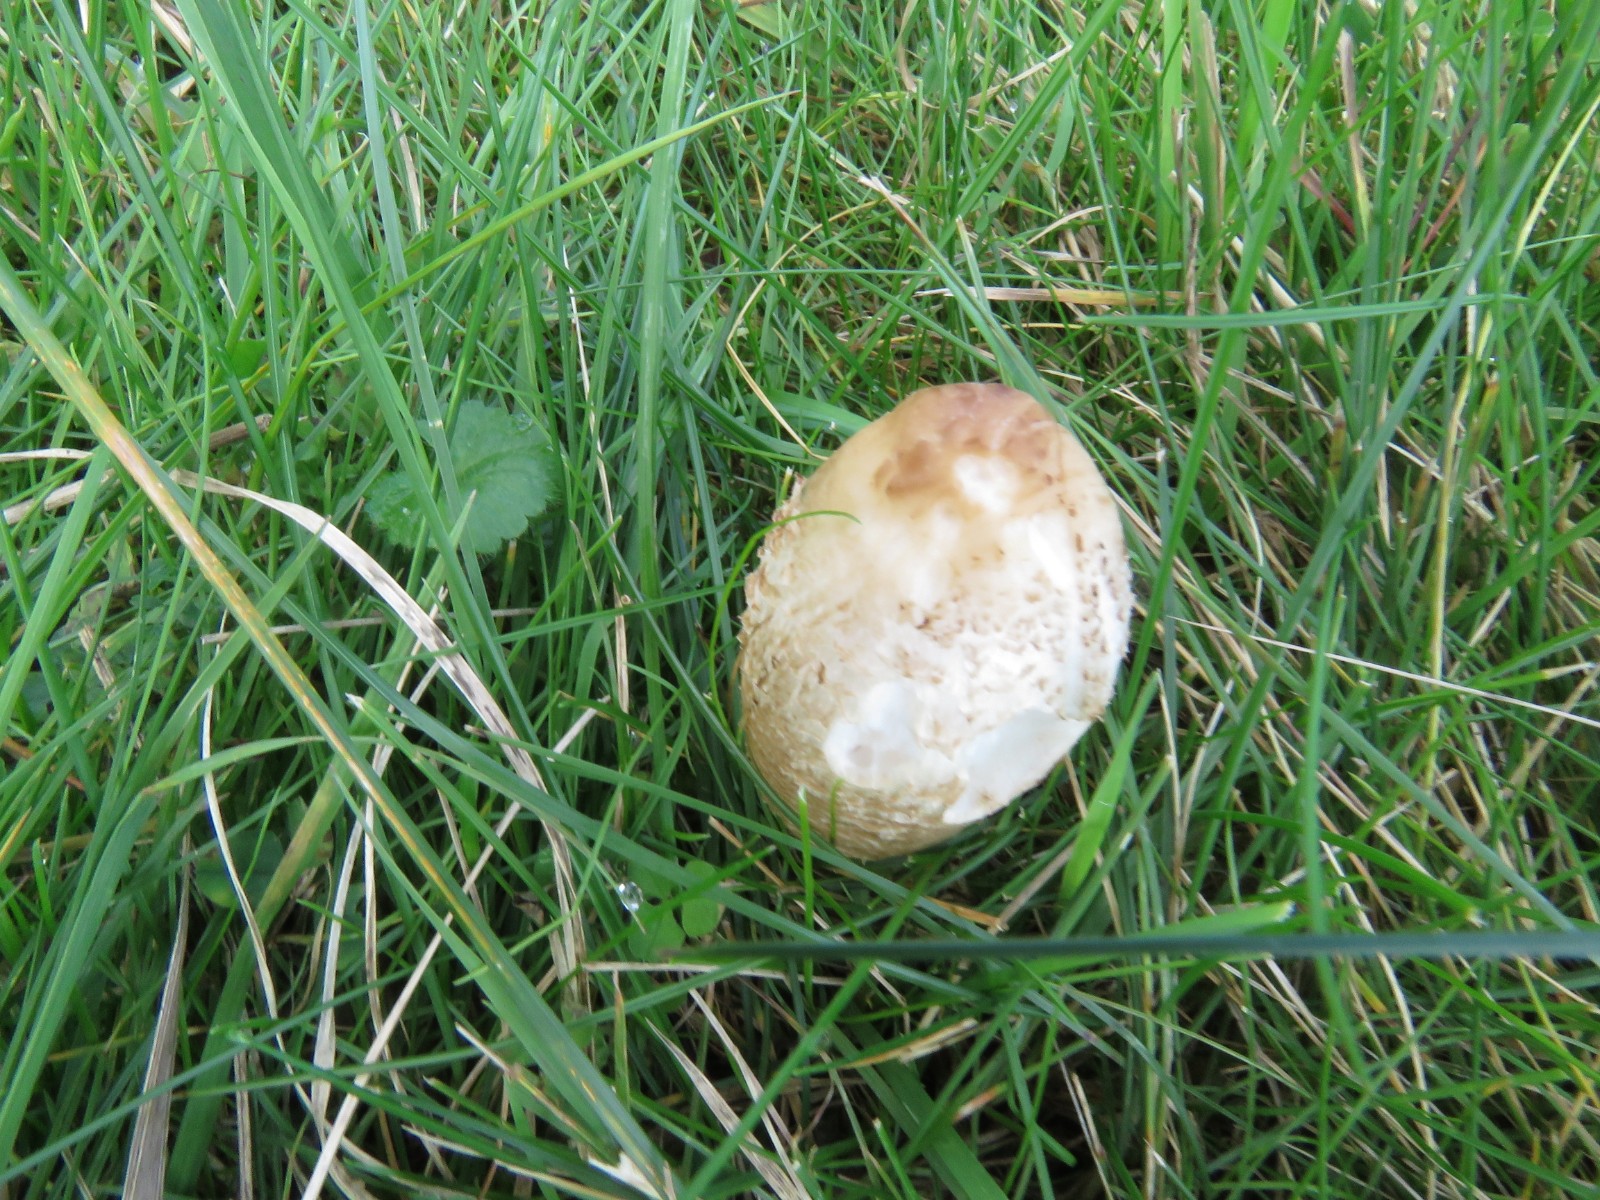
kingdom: Fungi
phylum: Basidiomycota
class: Agaricomycetes
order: Agaricales
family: Agaricaceae
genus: Coprinus
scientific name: Coprinus comatus
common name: stor parykhat
